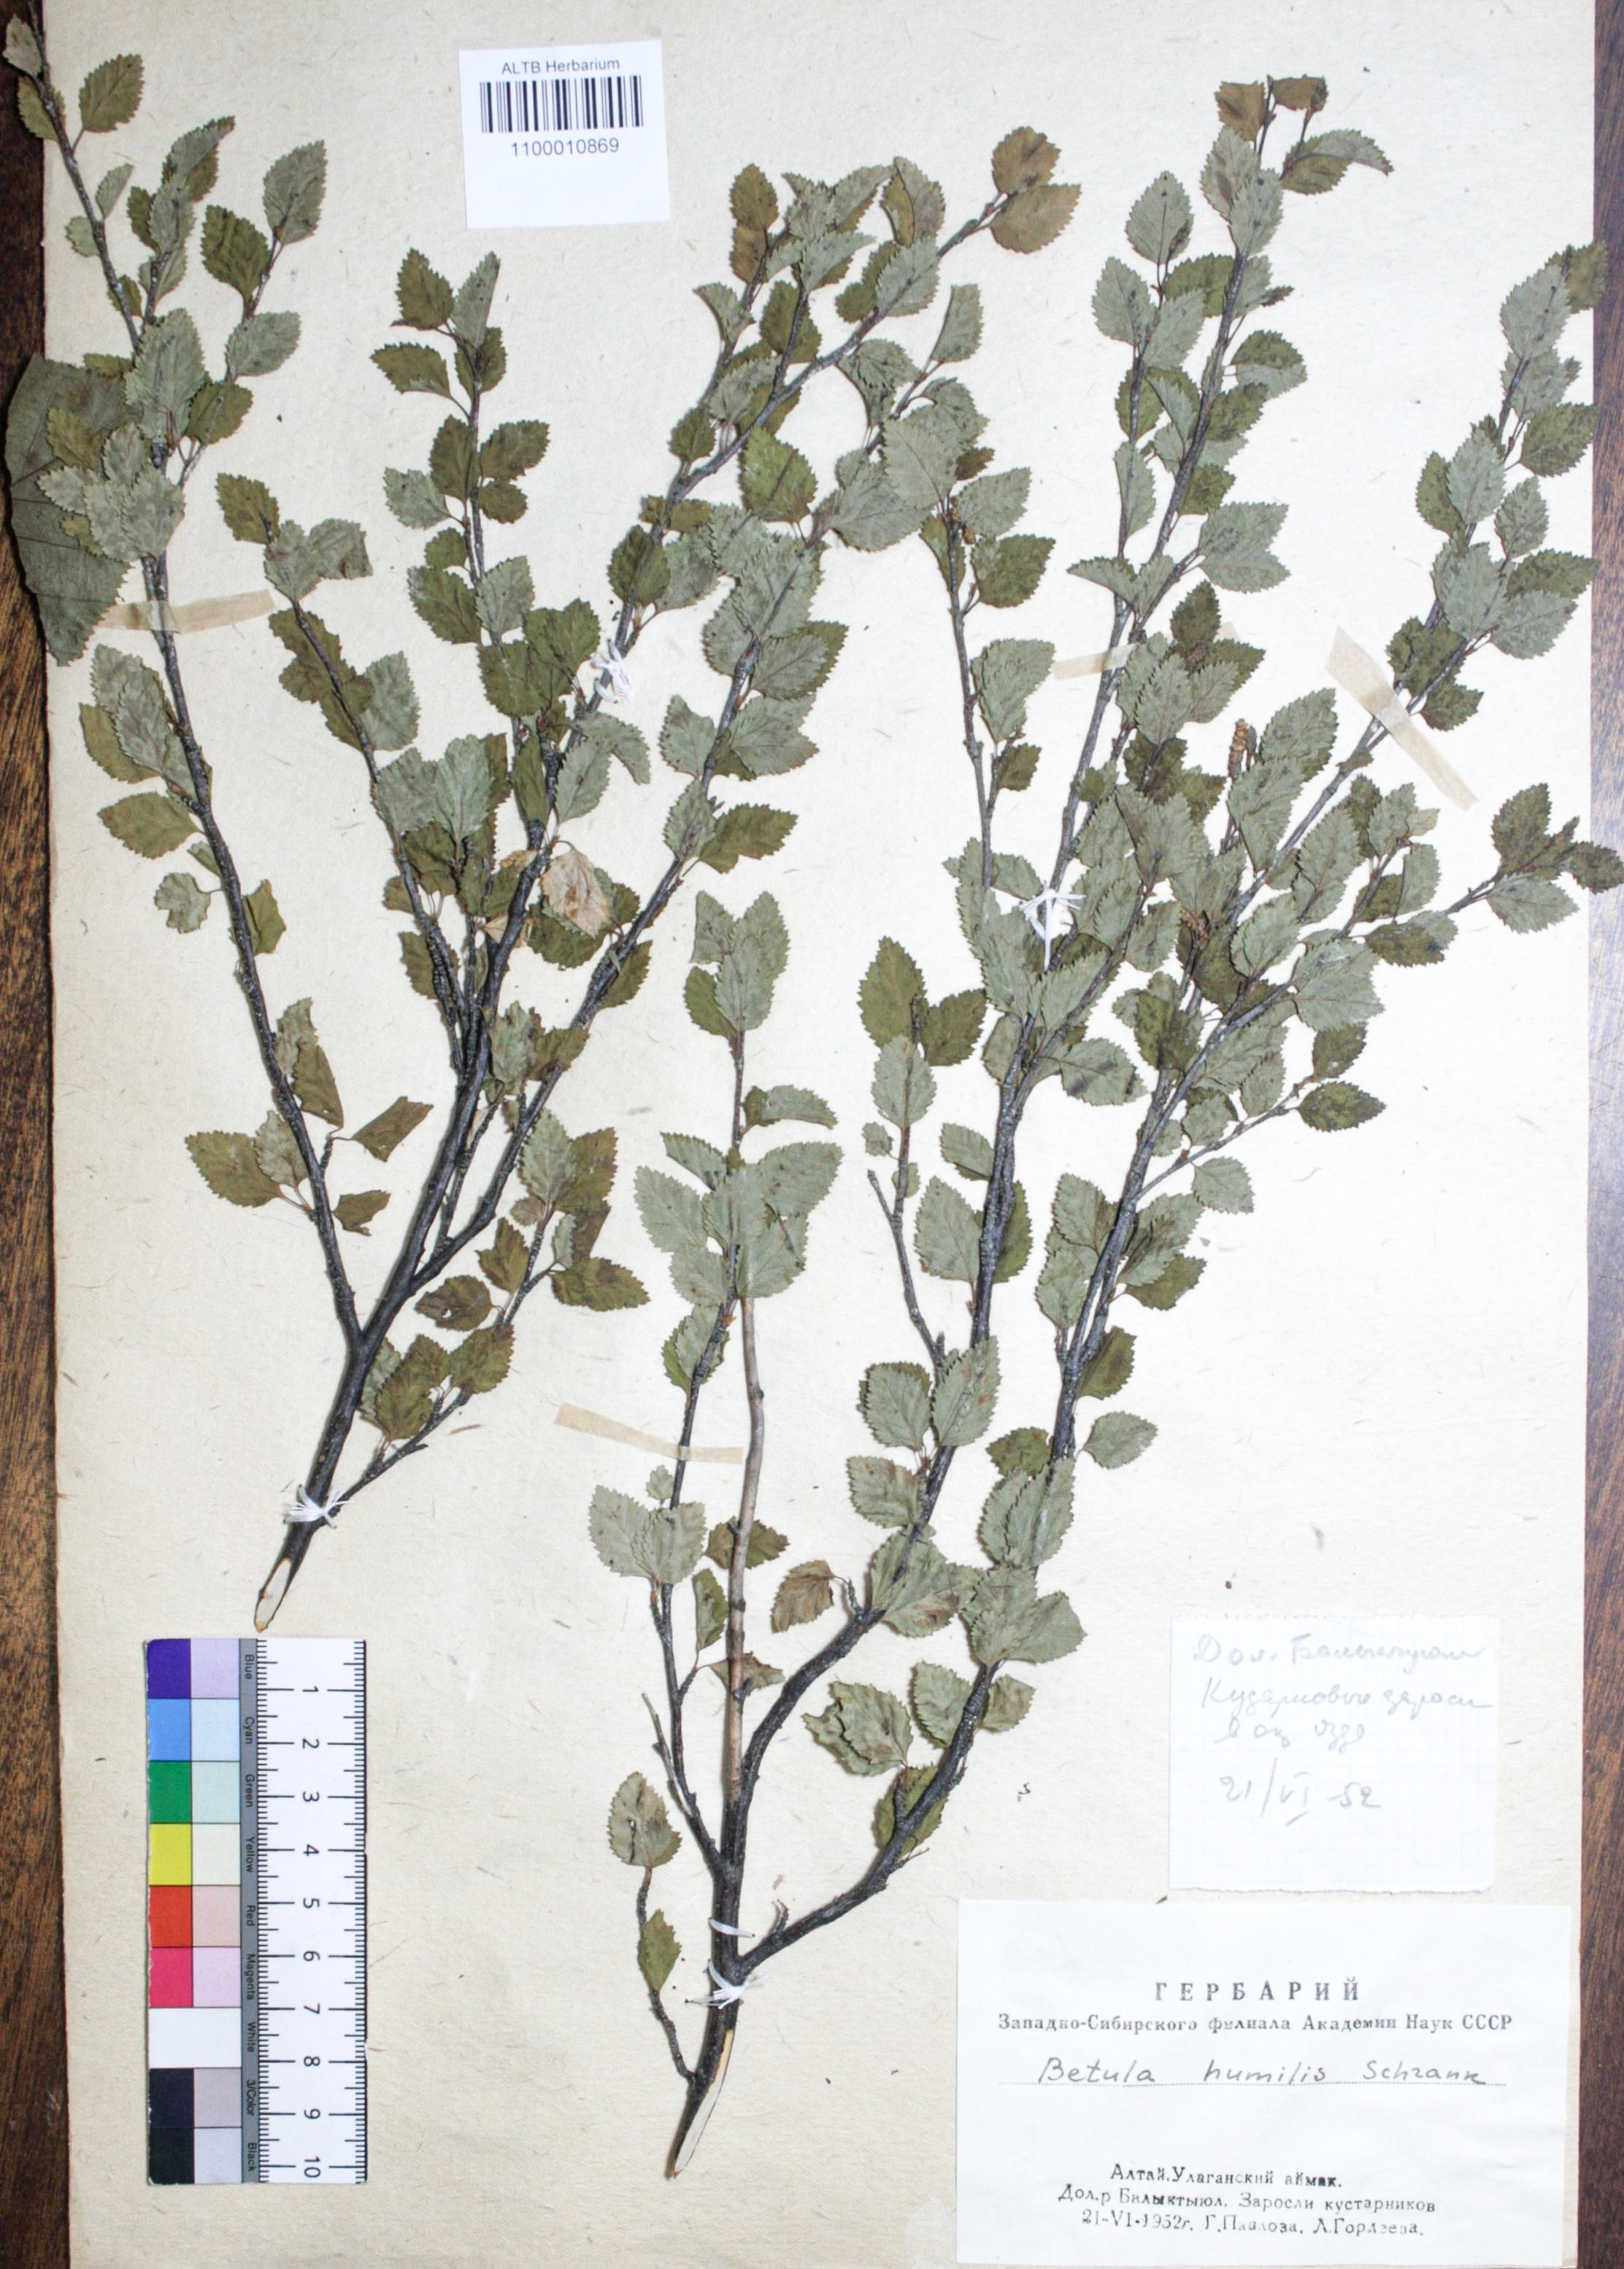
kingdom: Plantae
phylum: Tracheophyta
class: Magnoliopsida
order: Fagales
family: Betulaceae
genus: Betula
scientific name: Betula humilis
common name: Shrubby birch
